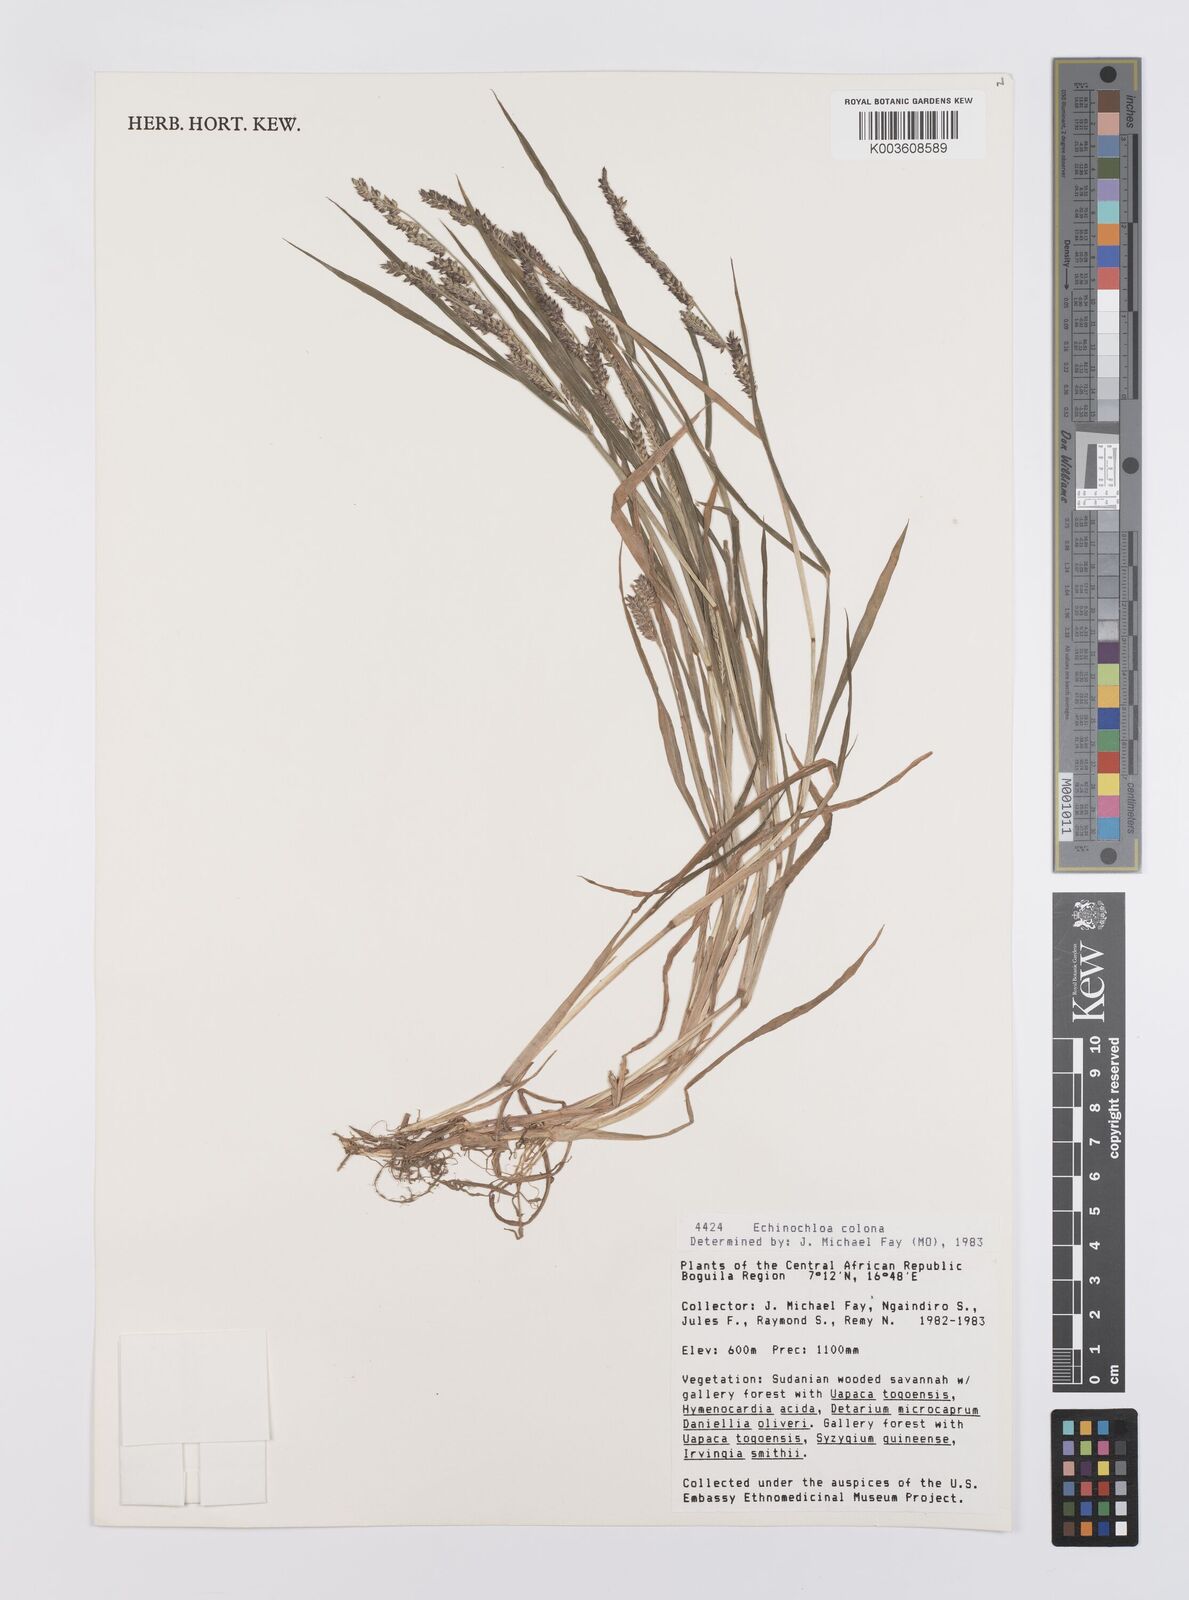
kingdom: Plantae
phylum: Tracheophyta
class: Liliopsida
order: Poales
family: Poaceae
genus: Echinochloa
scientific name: Echinochloa colonum
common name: Jungle rice
